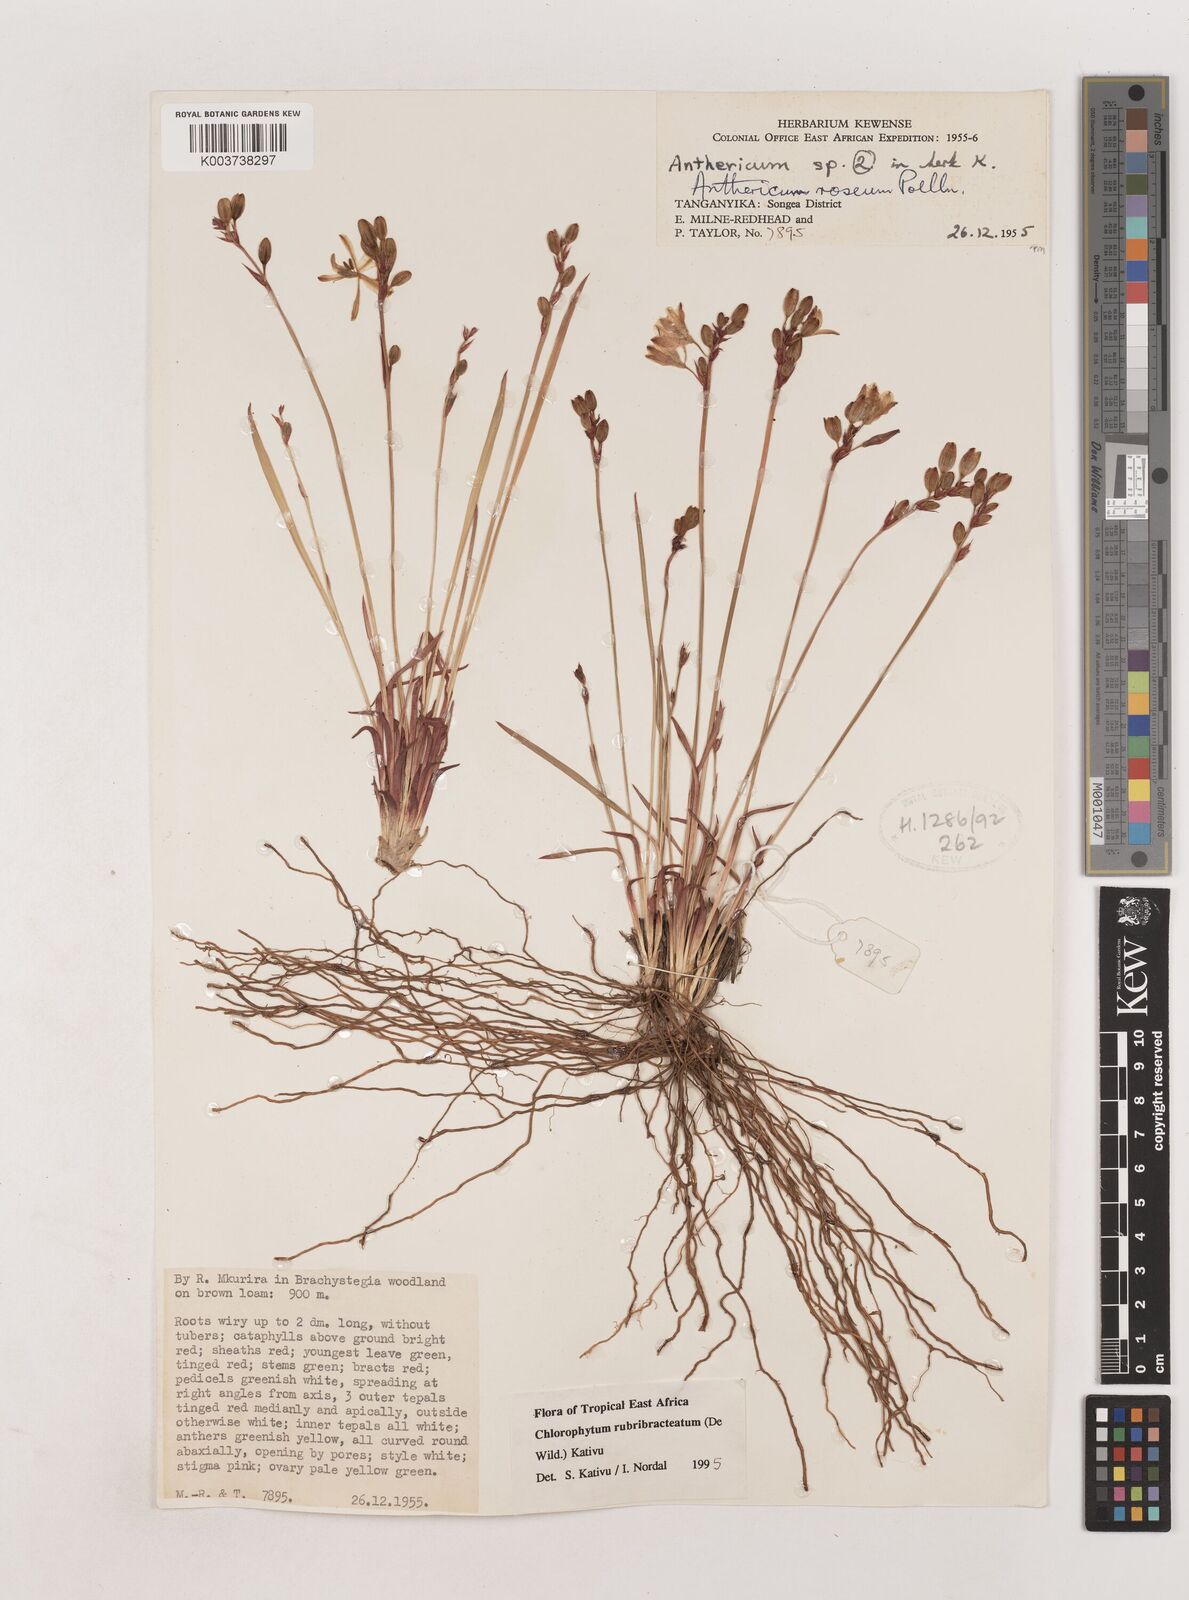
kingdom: Plantae
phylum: Tracheophyta
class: Liliopsida
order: Asparagales
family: Asparagaceae
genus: Chlorophytum
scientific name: Chlorophytum rubribracteatum
